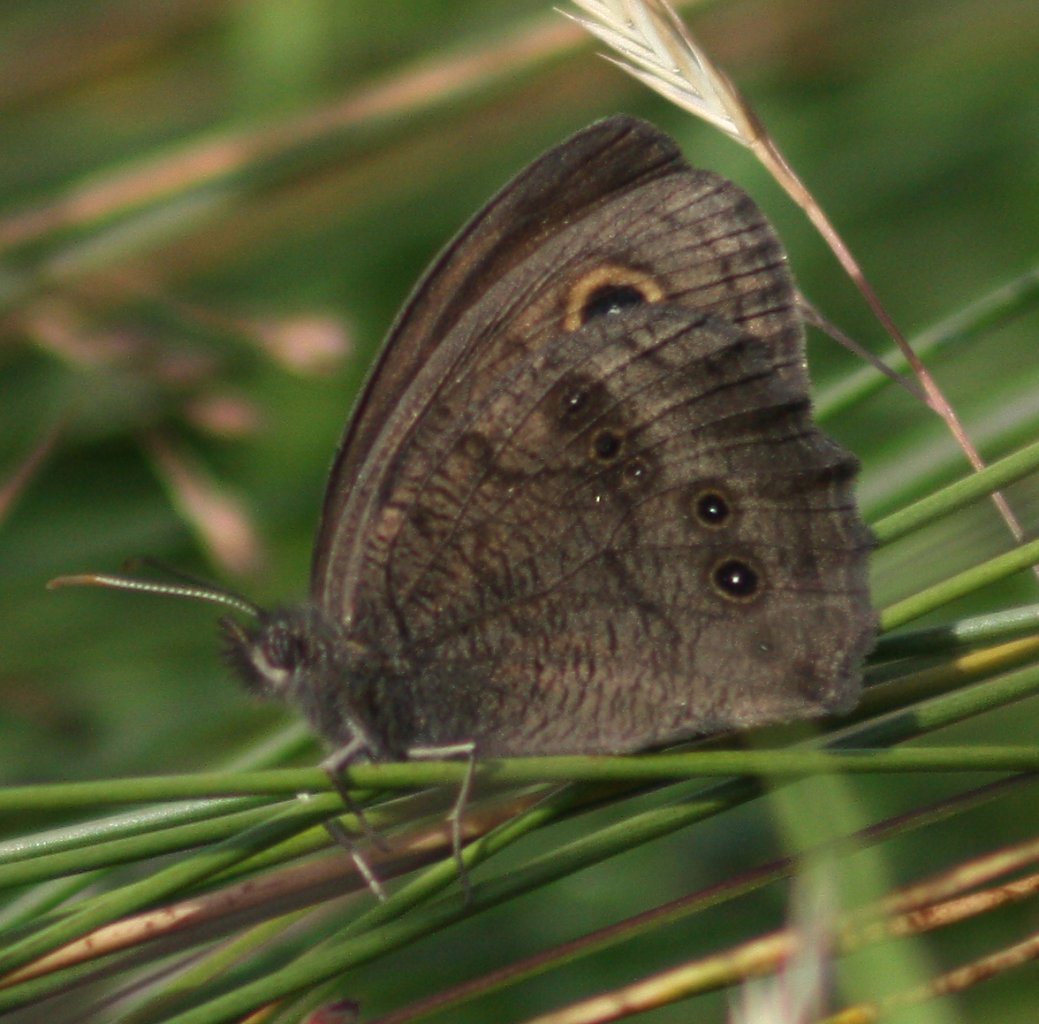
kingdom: Animalia
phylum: Arthropoda
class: Insecta
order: Lepidoptera
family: Nymphalidae
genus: Cercyonis
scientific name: Cercyonis pegala
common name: Common Wood-Nymph
